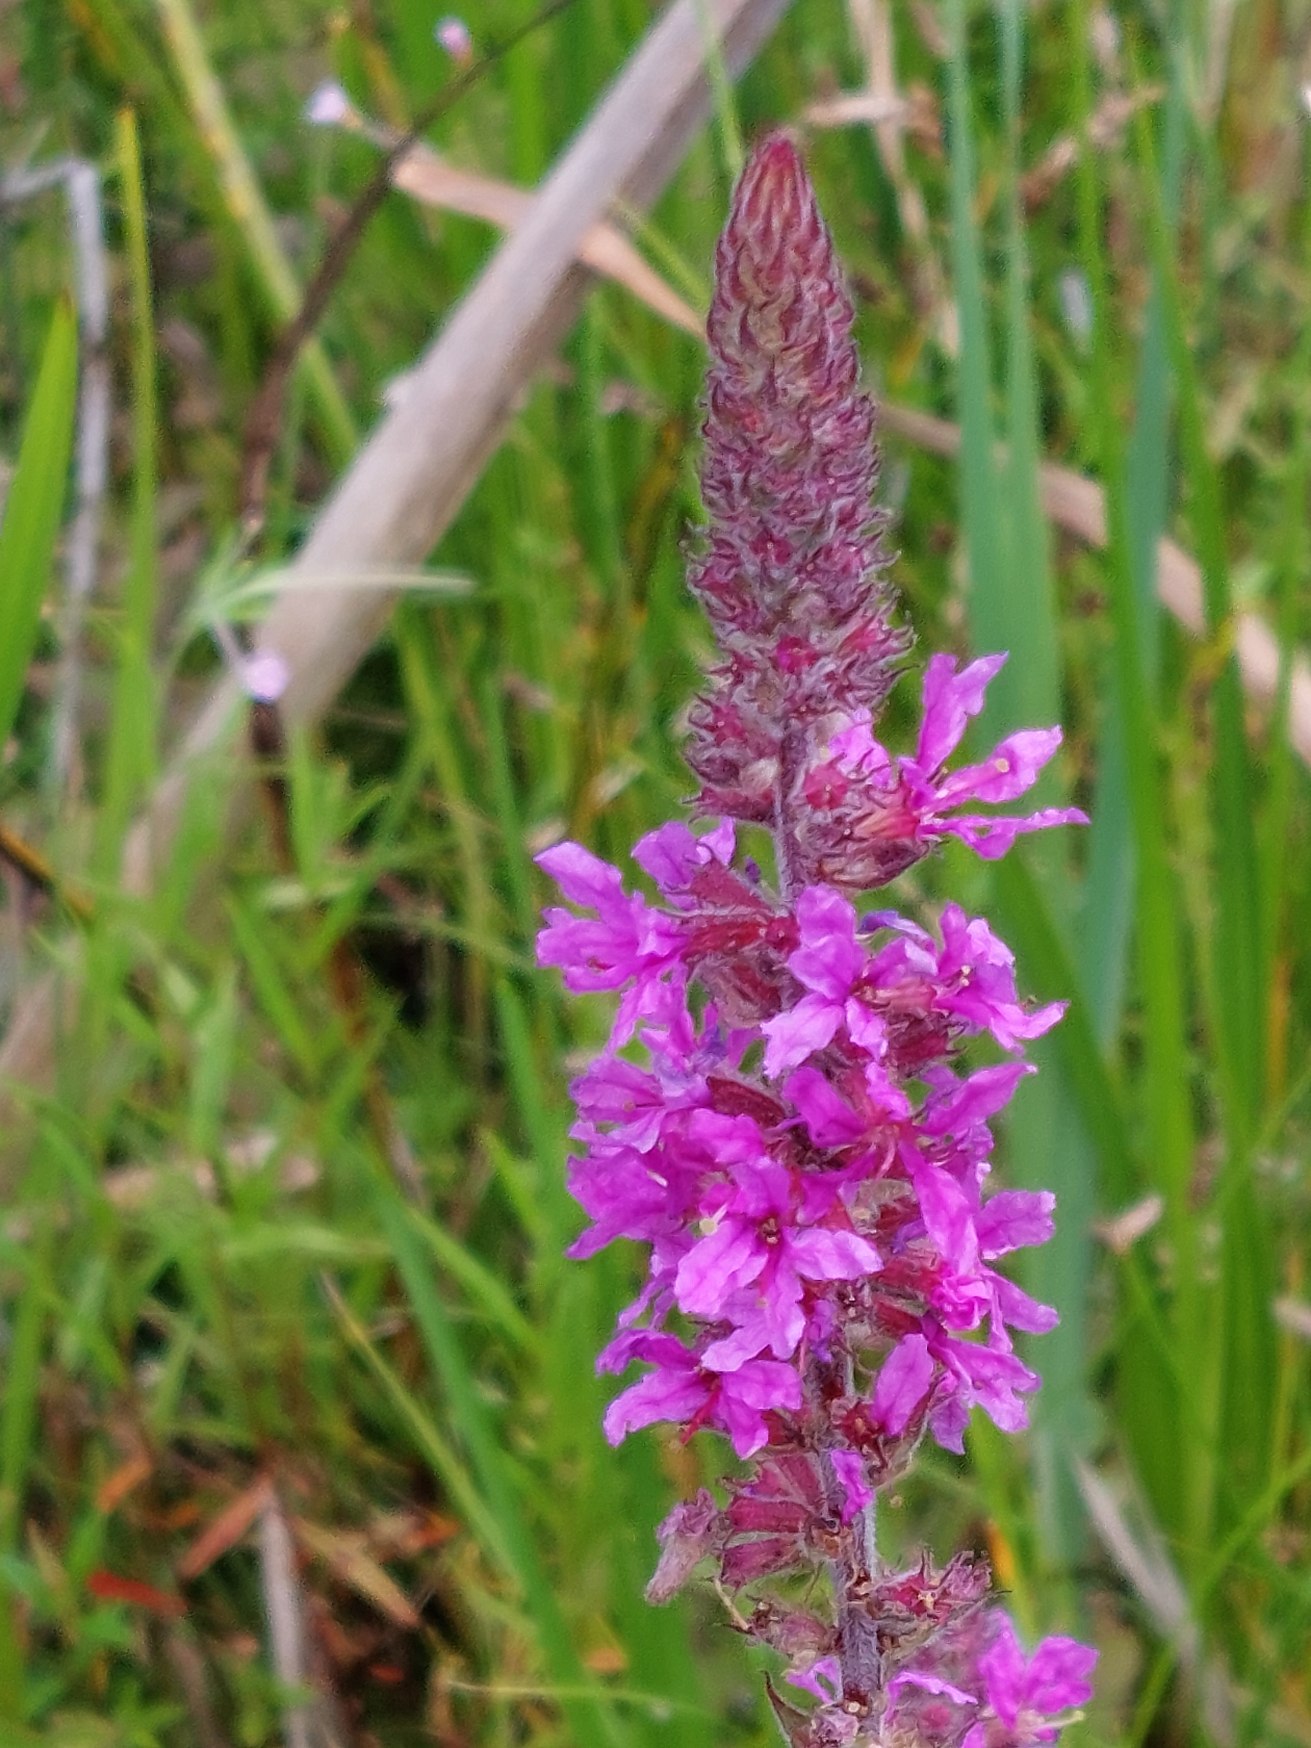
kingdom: Plantae
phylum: Tracheophyta
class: Magnoliopsida
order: Myrtales
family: Lythraceae
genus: Lythrum
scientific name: Lythrum salicaria
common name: Kattehale
